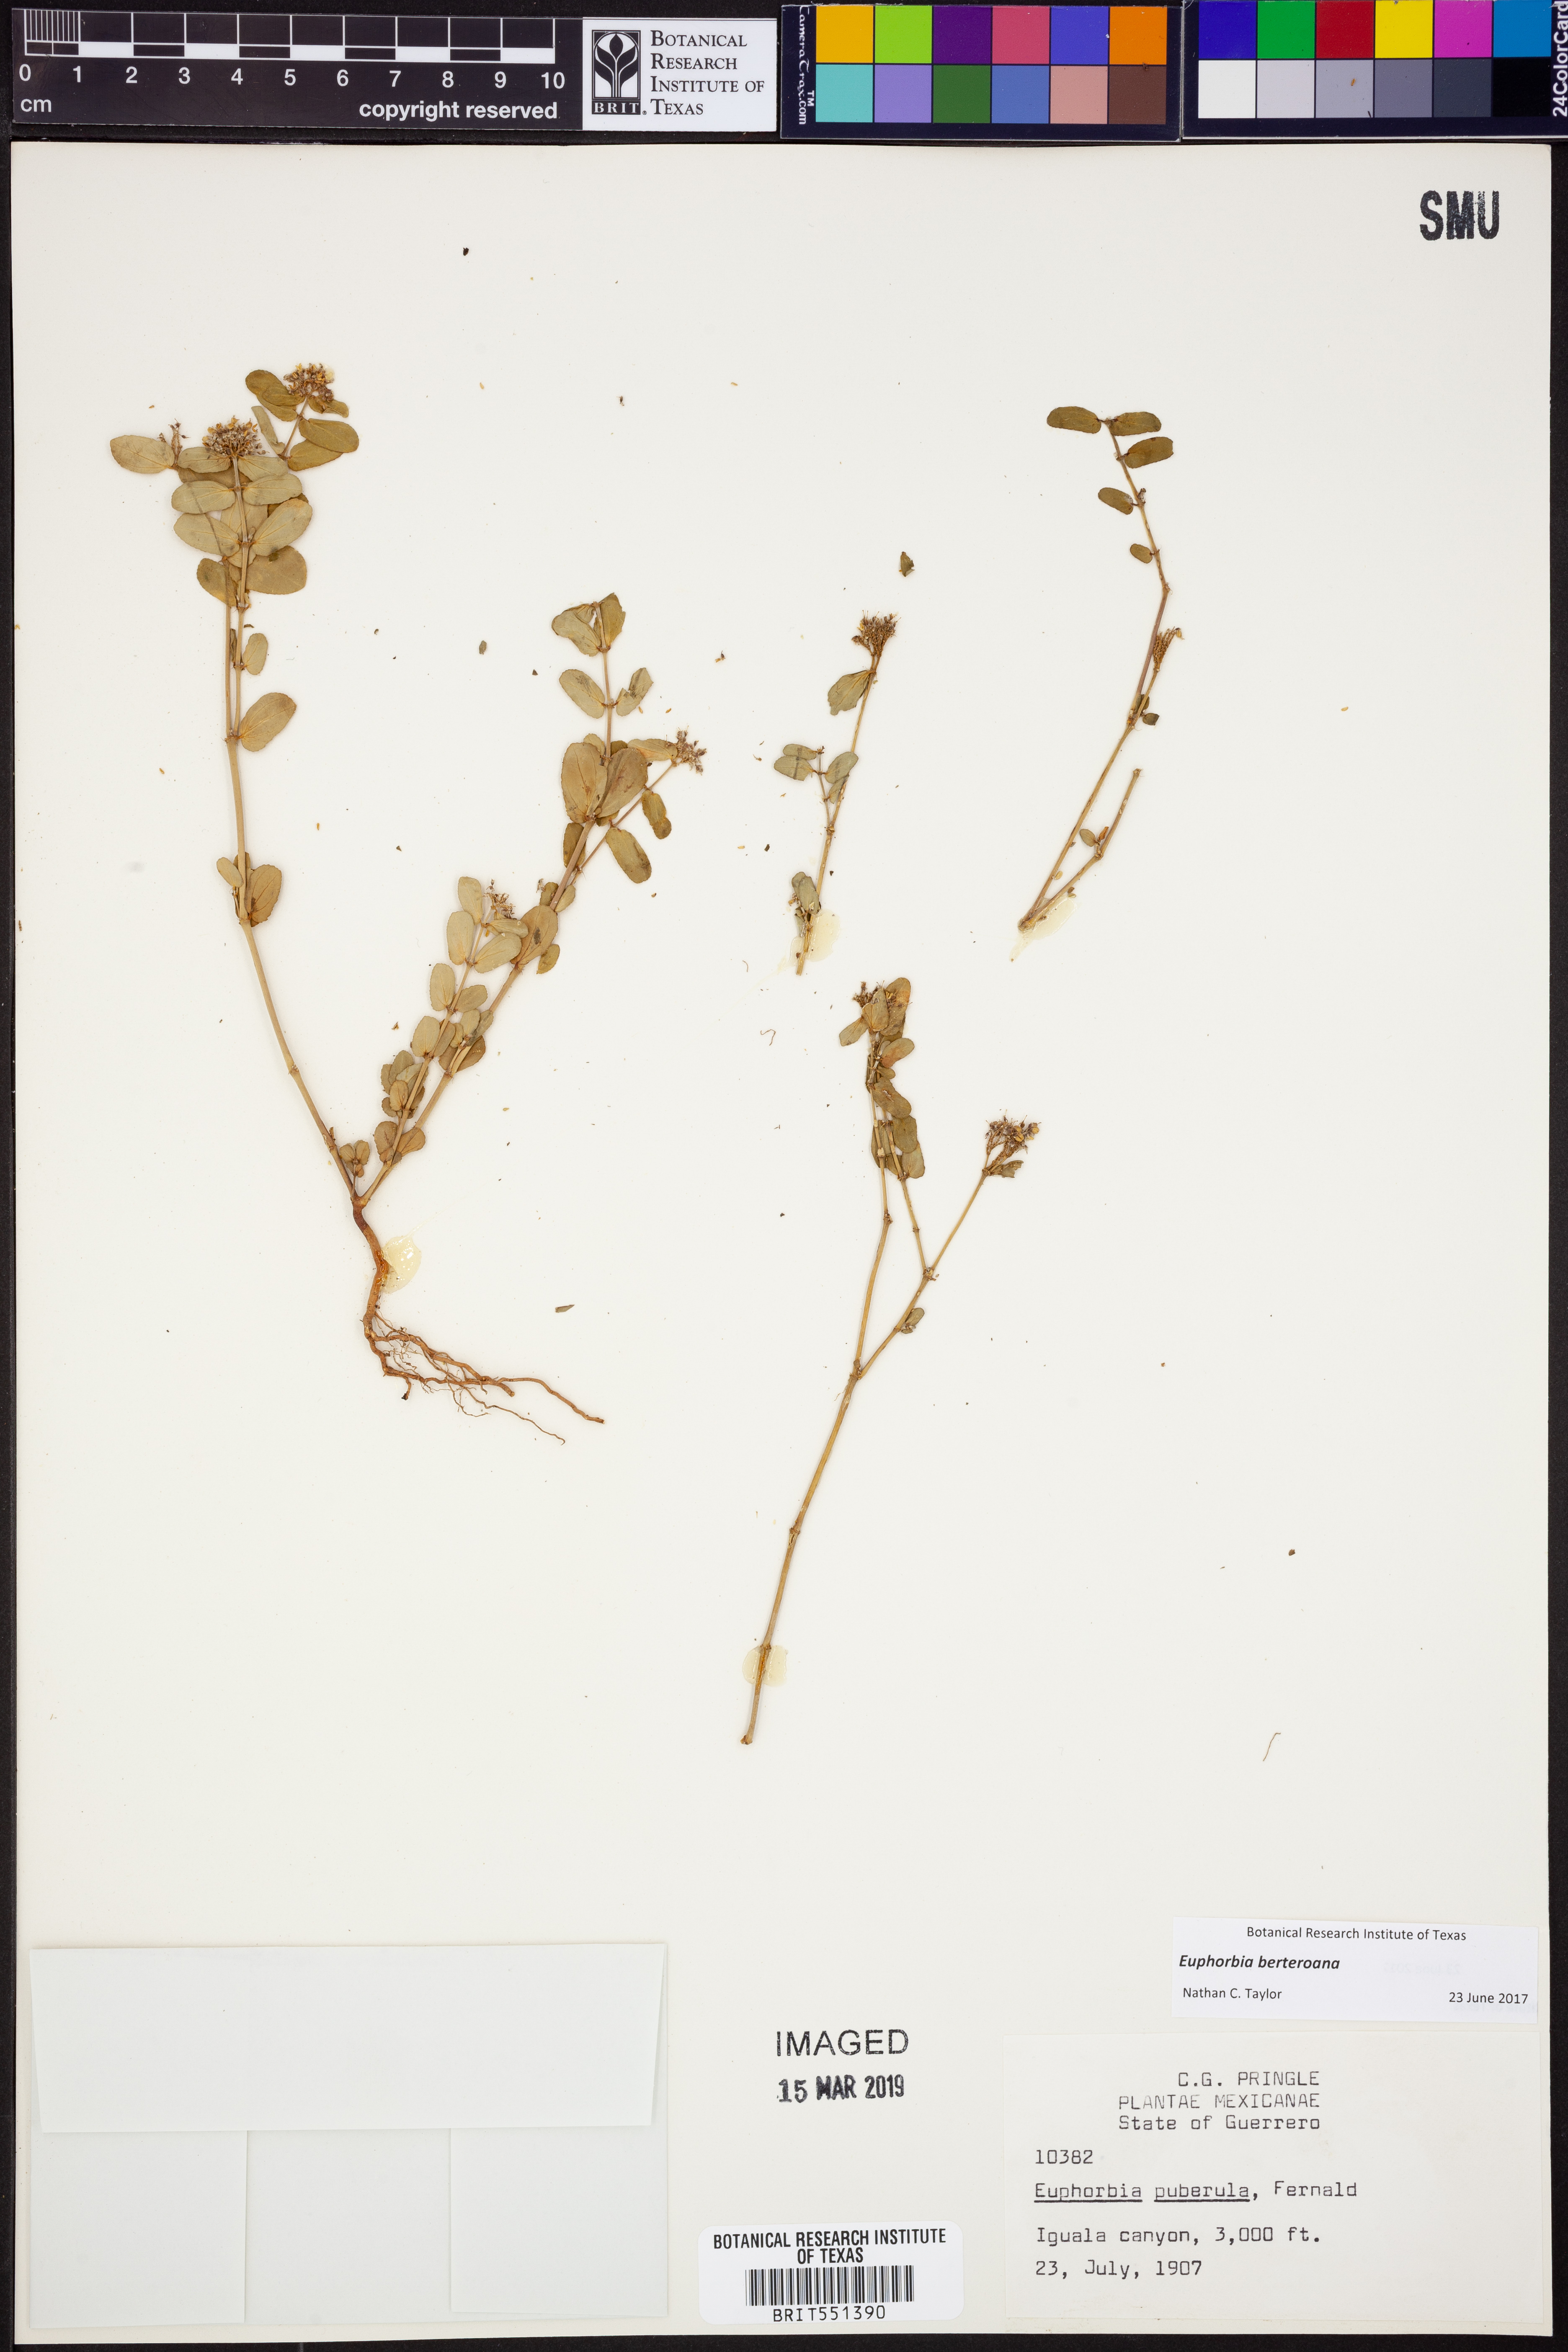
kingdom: Plantae
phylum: Tracheophyta
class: Magnoliopsida
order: Malpighiales
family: Euphorbiaceae
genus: Euphorbia
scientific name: Euphorbia berteroana
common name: Bertero's sandmat
